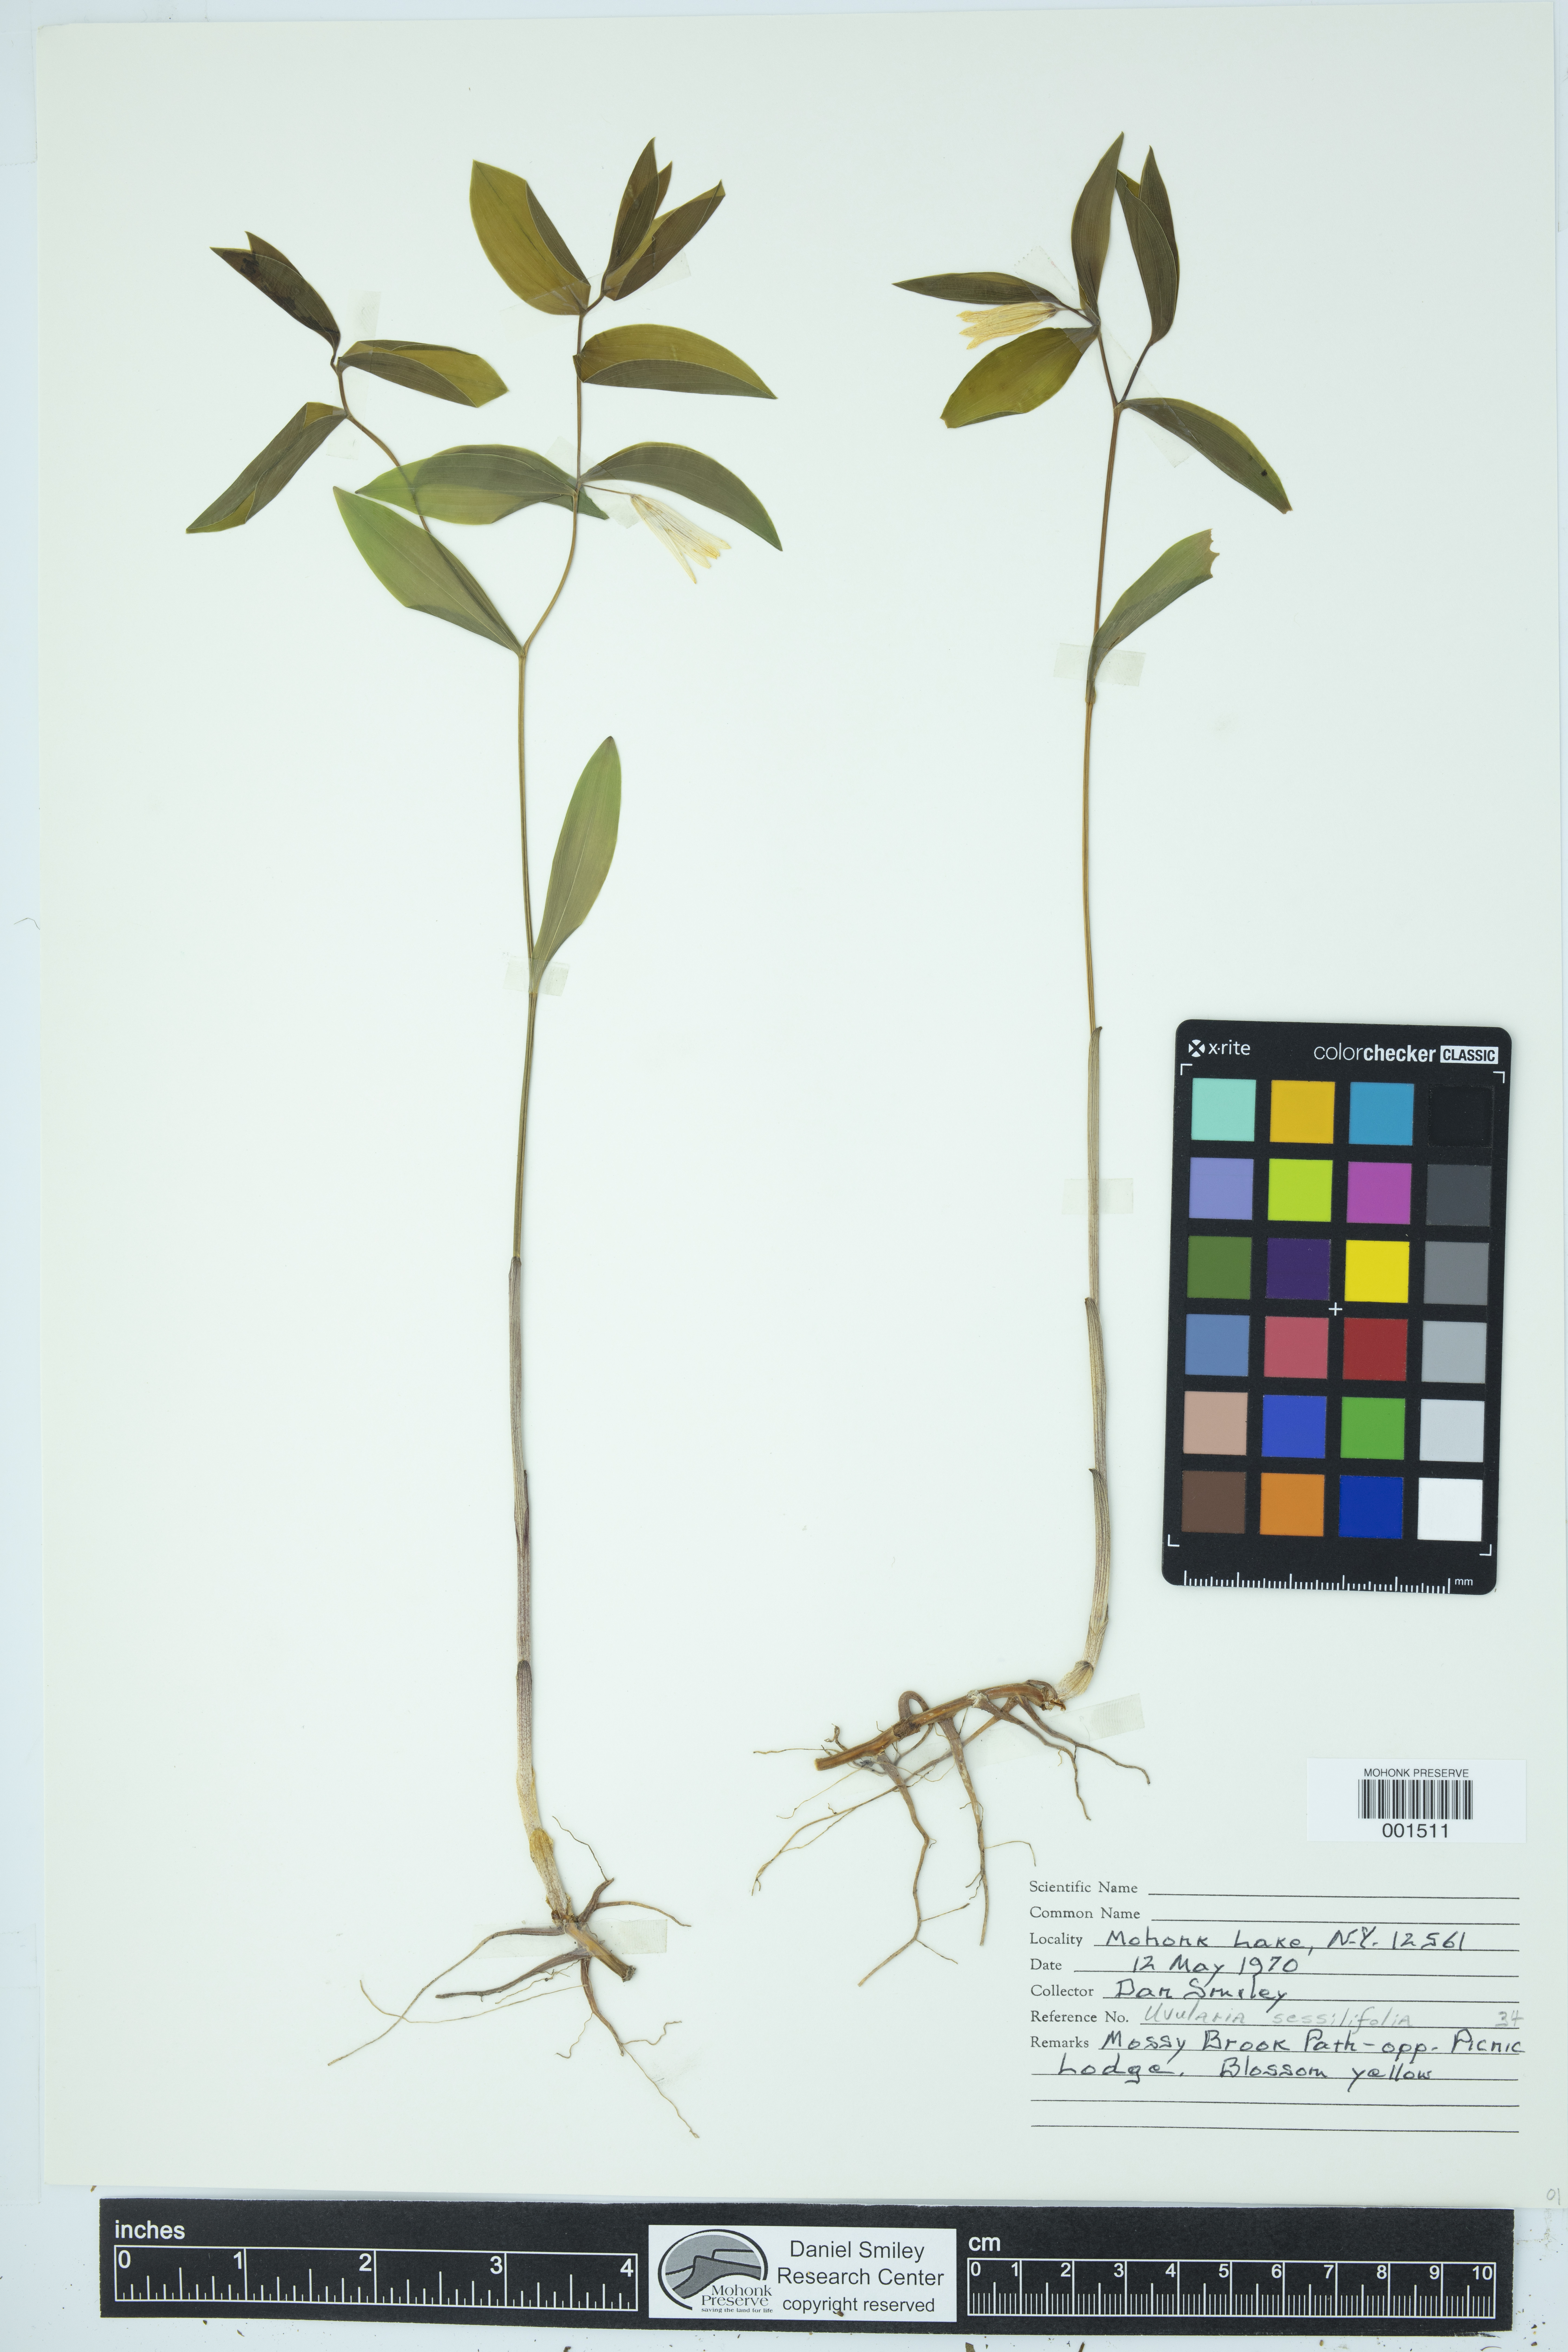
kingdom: Plantae
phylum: Tracheophyta
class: Liliopsida
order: Liliales
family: Colchicaceae
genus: Uvularia
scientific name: Uvularia sessilifolia
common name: Straw-lily
